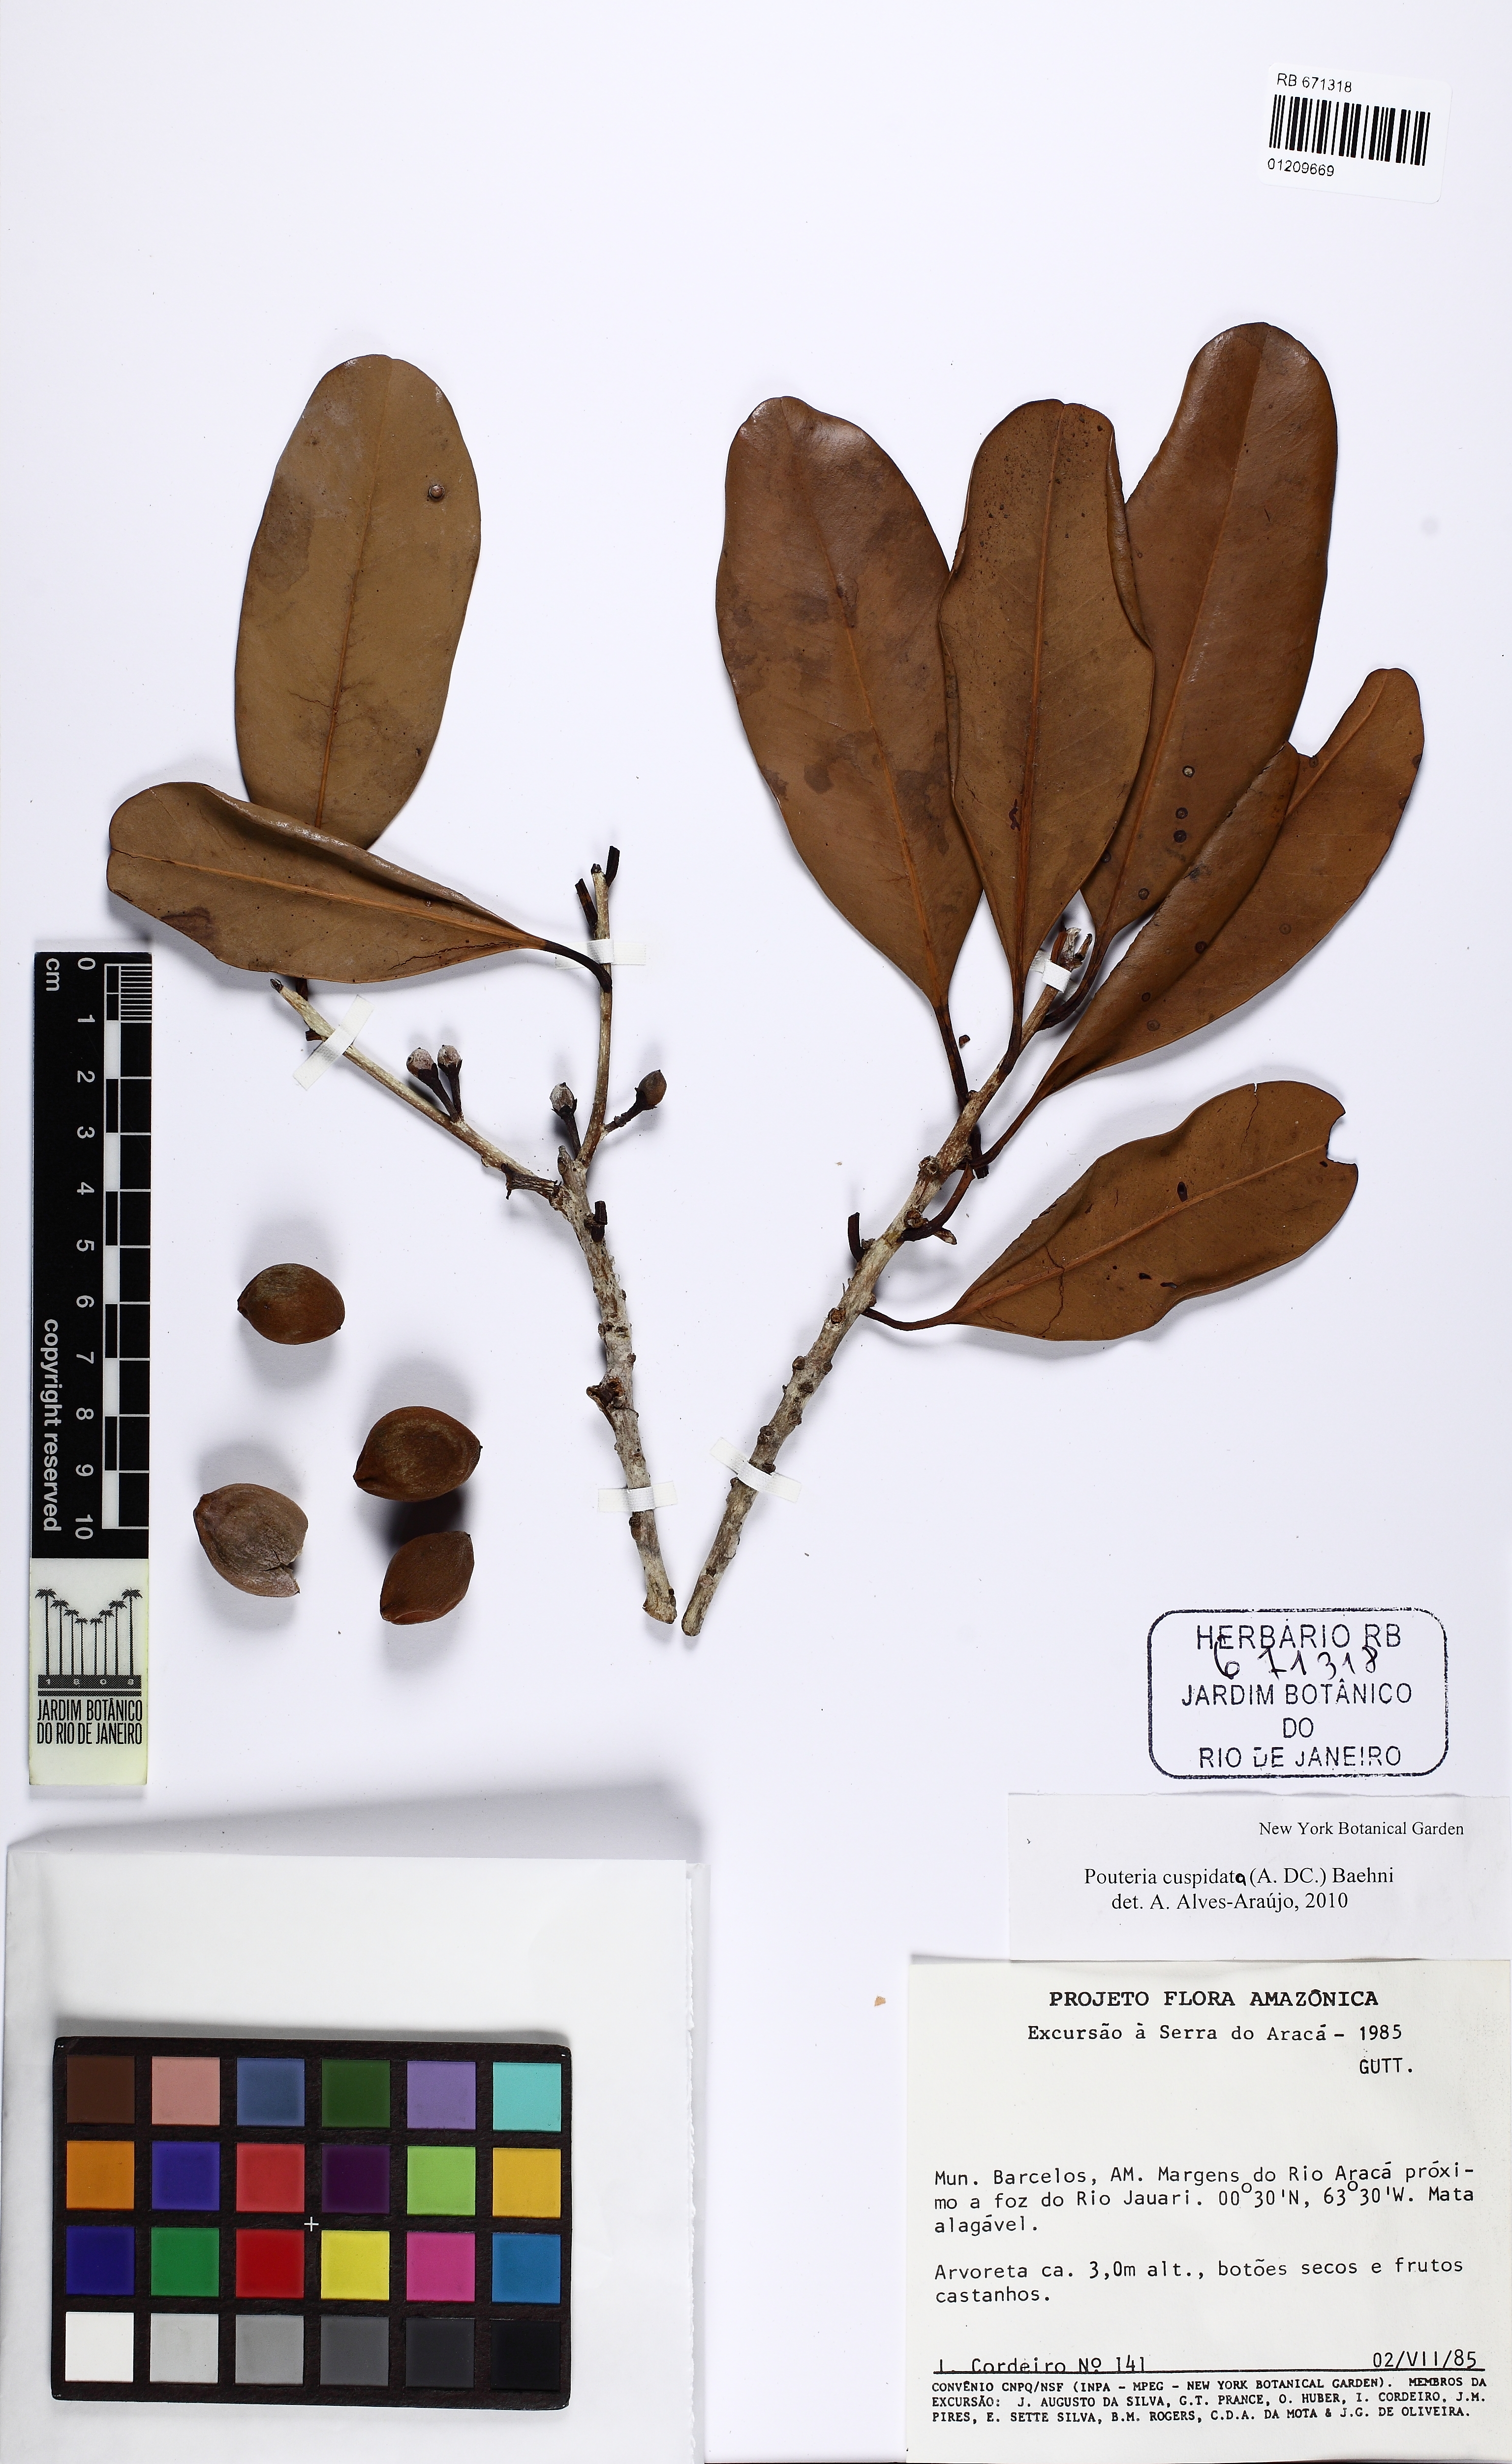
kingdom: Plantae
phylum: Tracheophyta
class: Magnoliopsida
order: Ericales
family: Sapotaceae
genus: Pouteria
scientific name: Pouteria cuspidata
